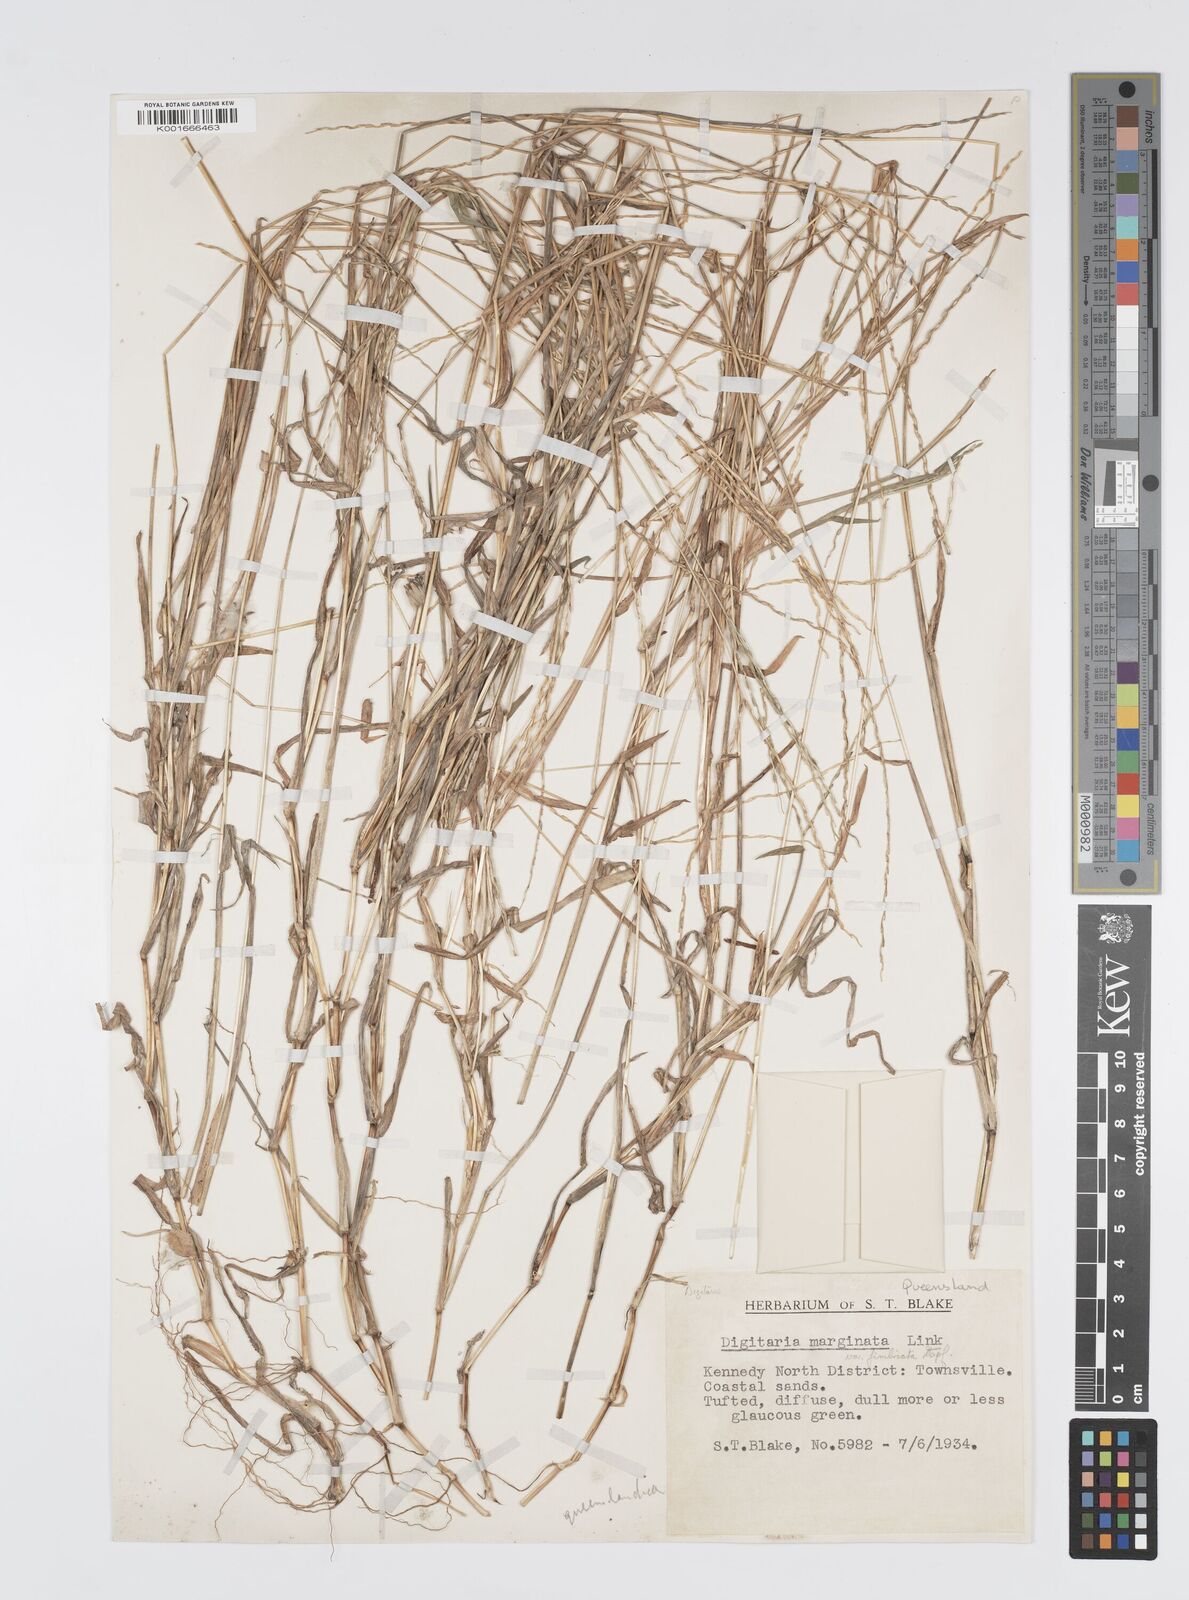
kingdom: Plantae
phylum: Tracheophyta
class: Liliopsida
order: Poales
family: Poaceae
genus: Digitaria
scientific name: Digitaria bicornis
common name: Asian crabgrass
